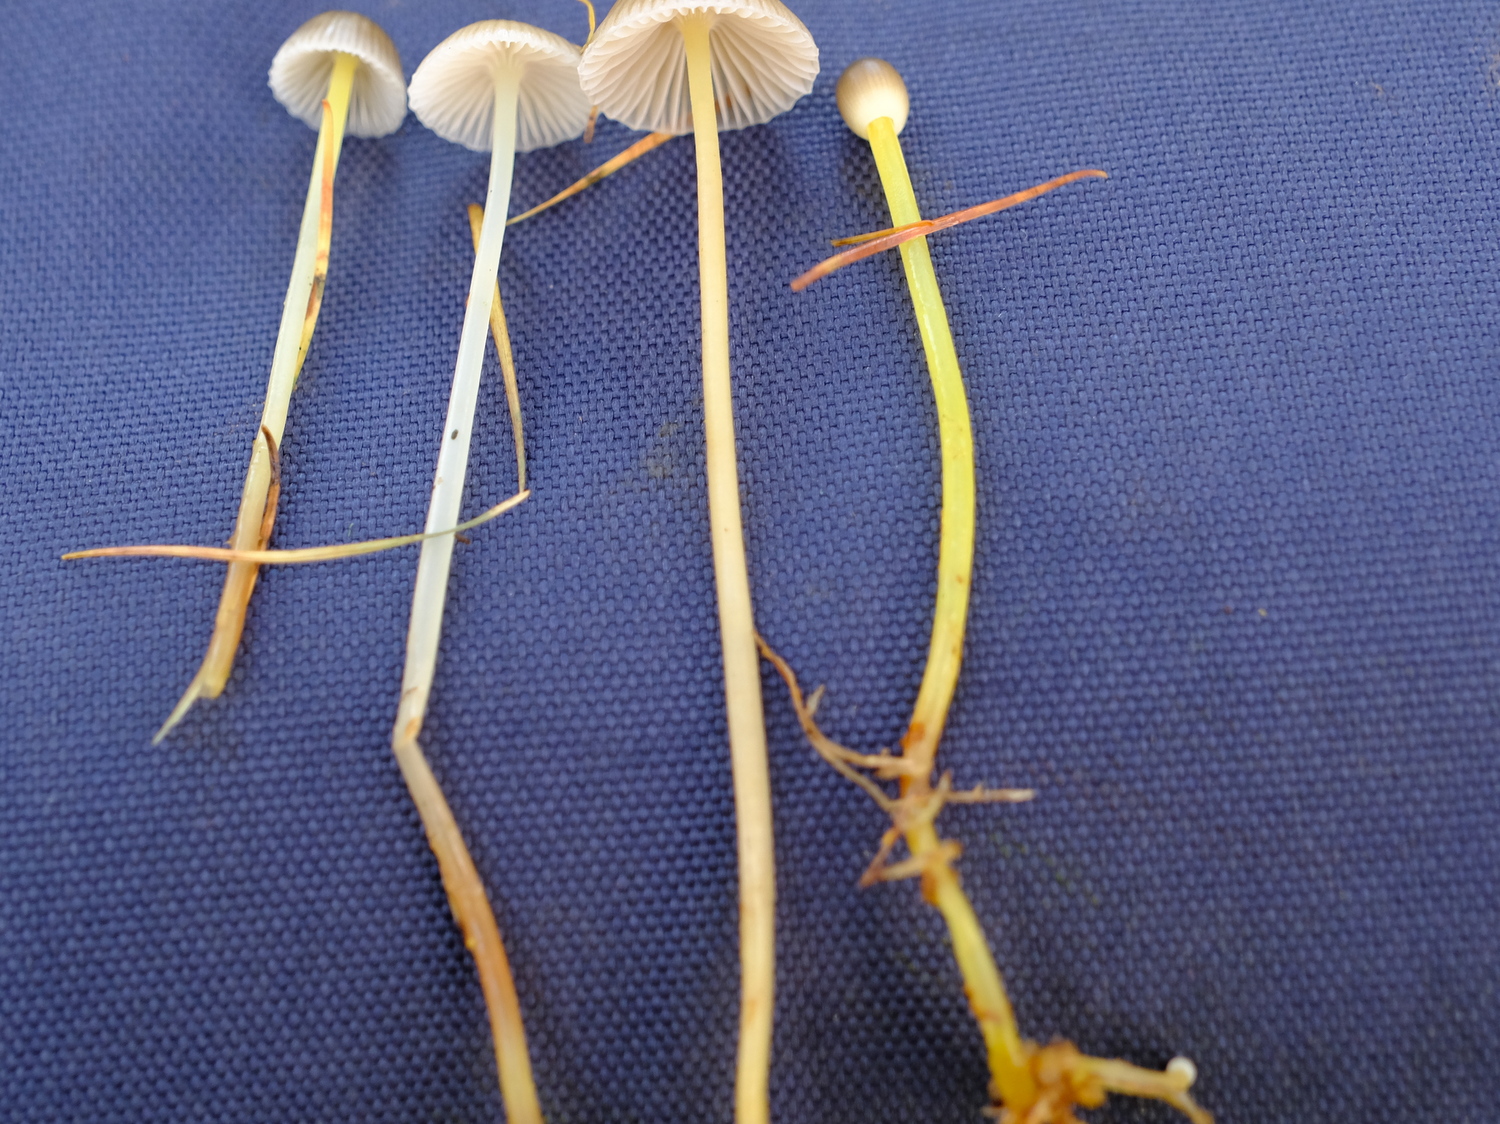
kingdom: Fungi
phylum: Basidiomycota
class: Agaricomycetes
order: Agaricales
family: Mycenaceae
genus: Mycena
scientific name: Mycena epipterygia
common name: gulstokket huesvamp
